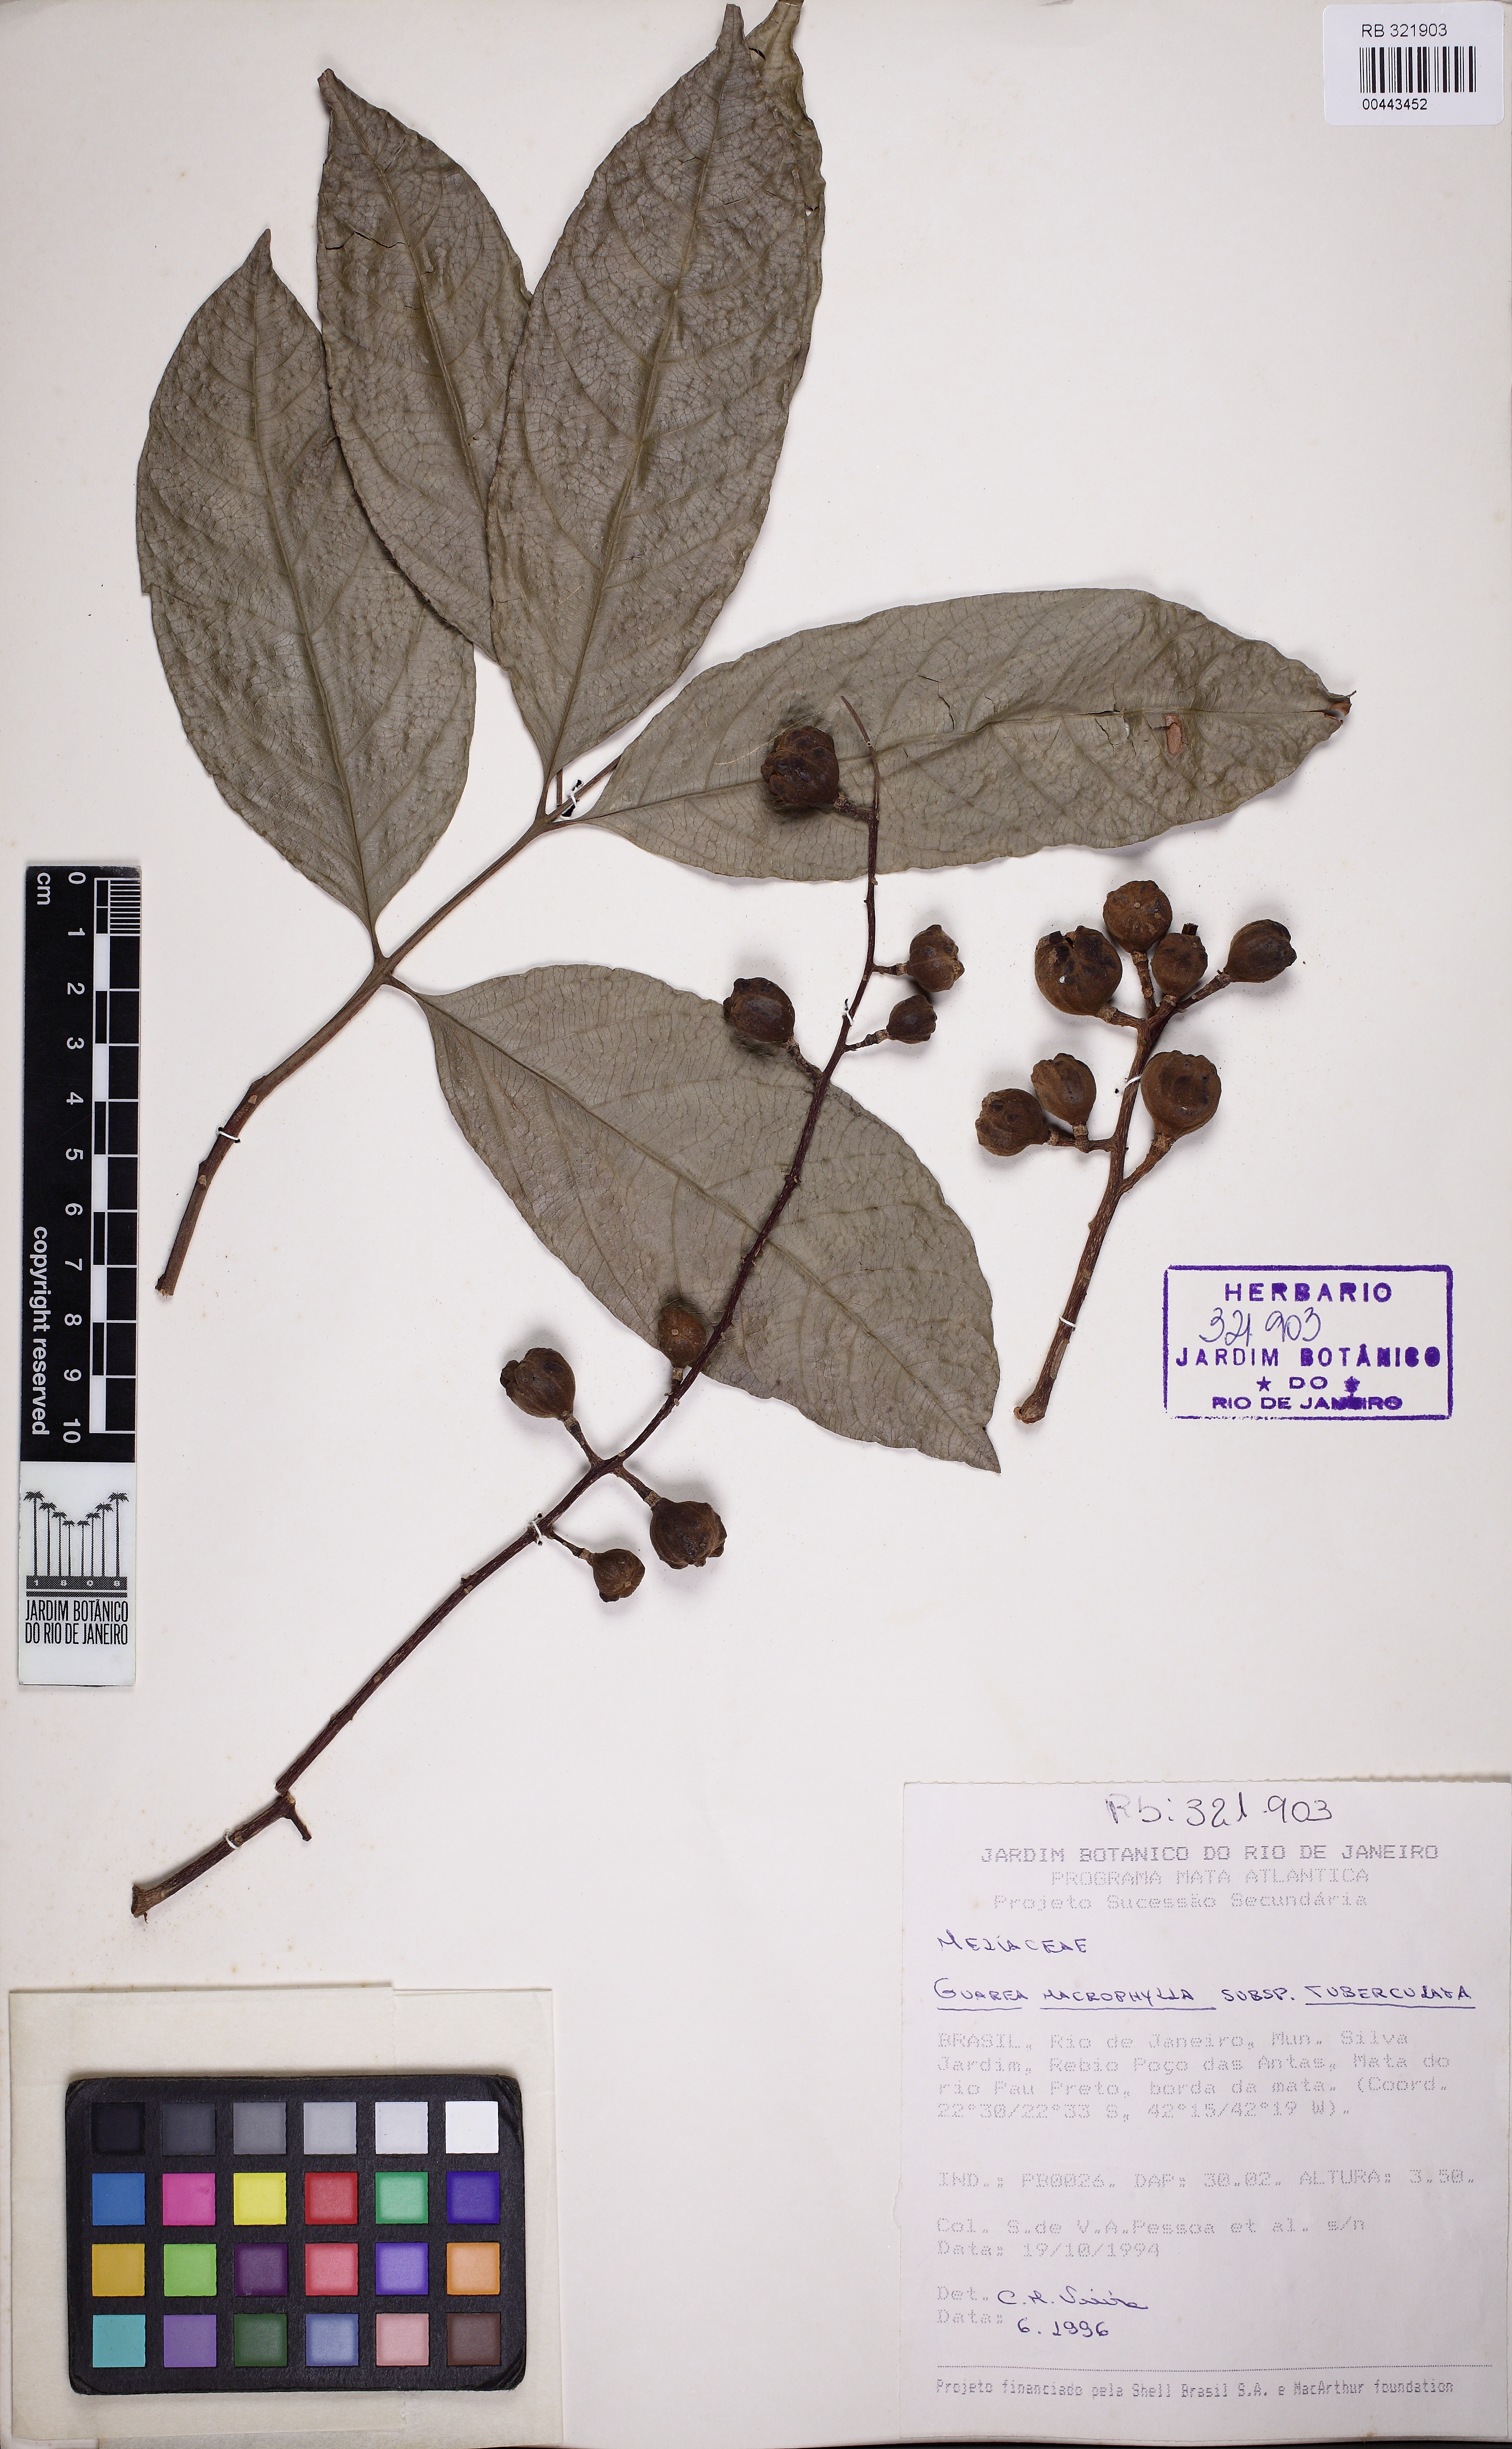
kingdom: Plantae
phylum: Tracheophyta
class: Magnoliopsida
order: Sapindales
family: Meliaceae
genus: Guarea
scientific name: Guarea macrophylla
